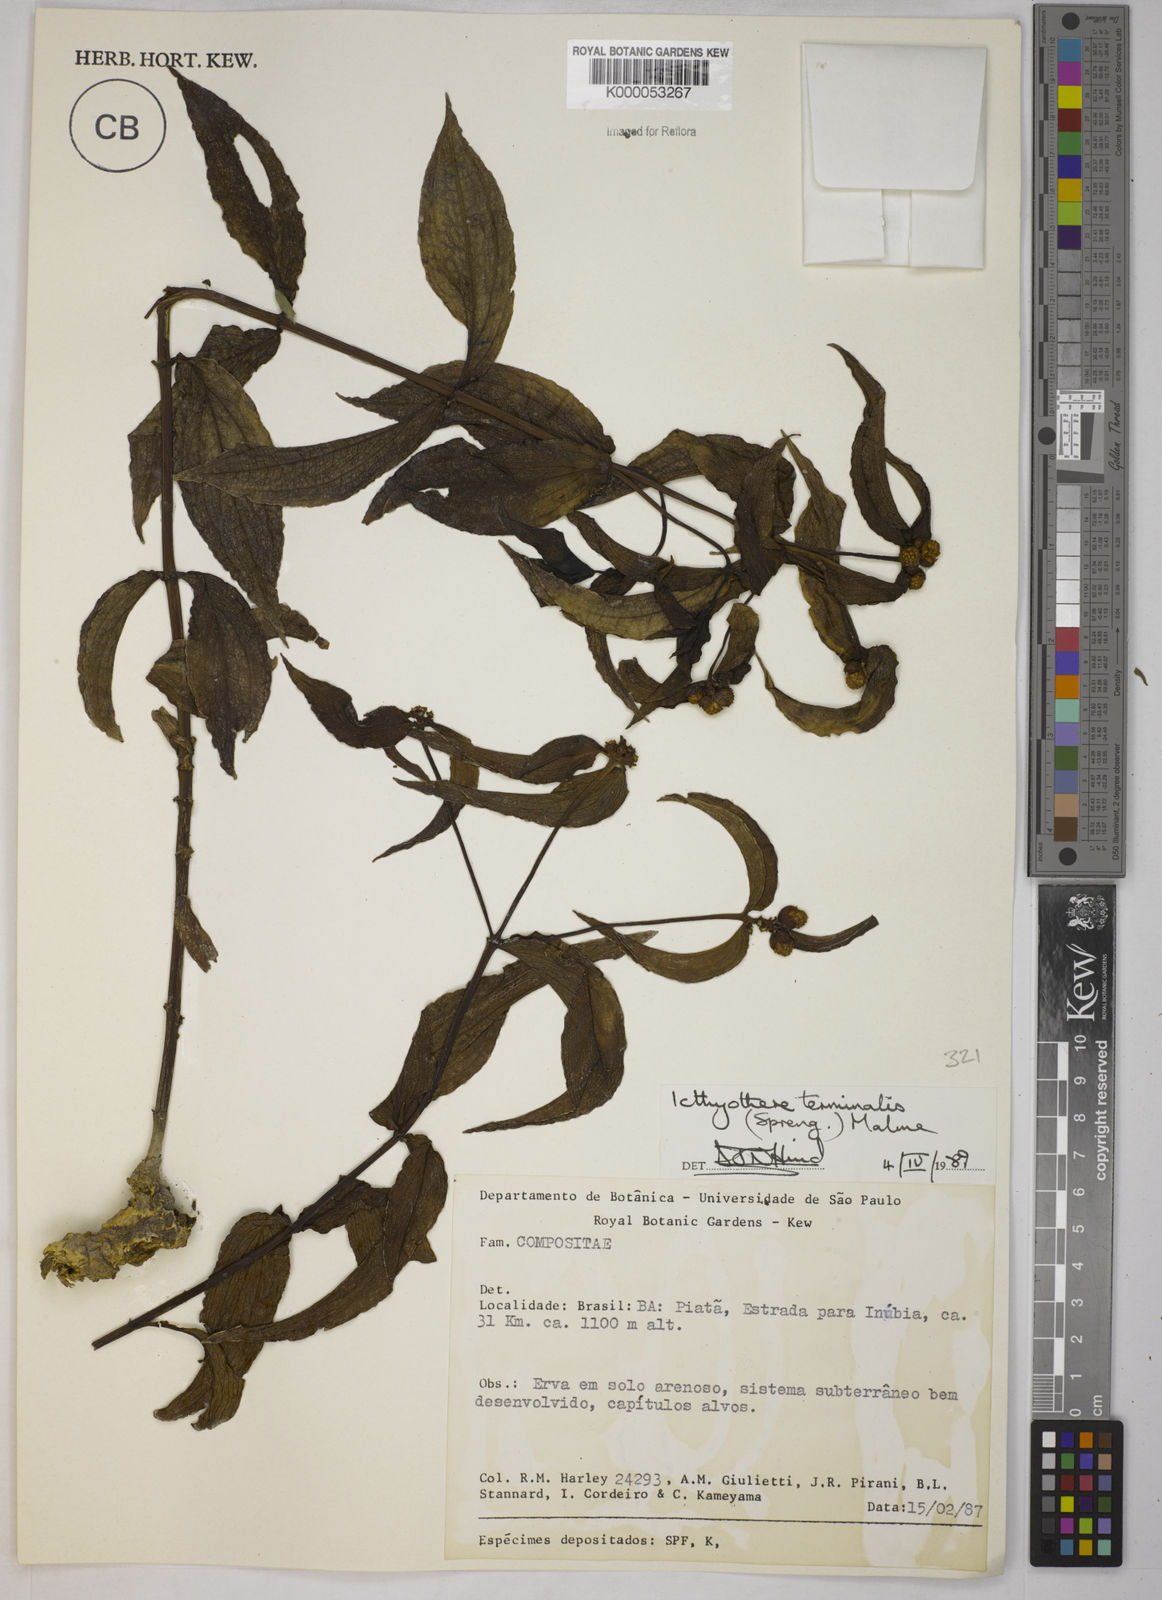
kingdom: Plantae
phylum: Tracheophyta
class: Magnoliopsida
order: Asterales
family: Asteraceae
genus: Ichthyothere
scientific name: Ichthyothere terminalis
